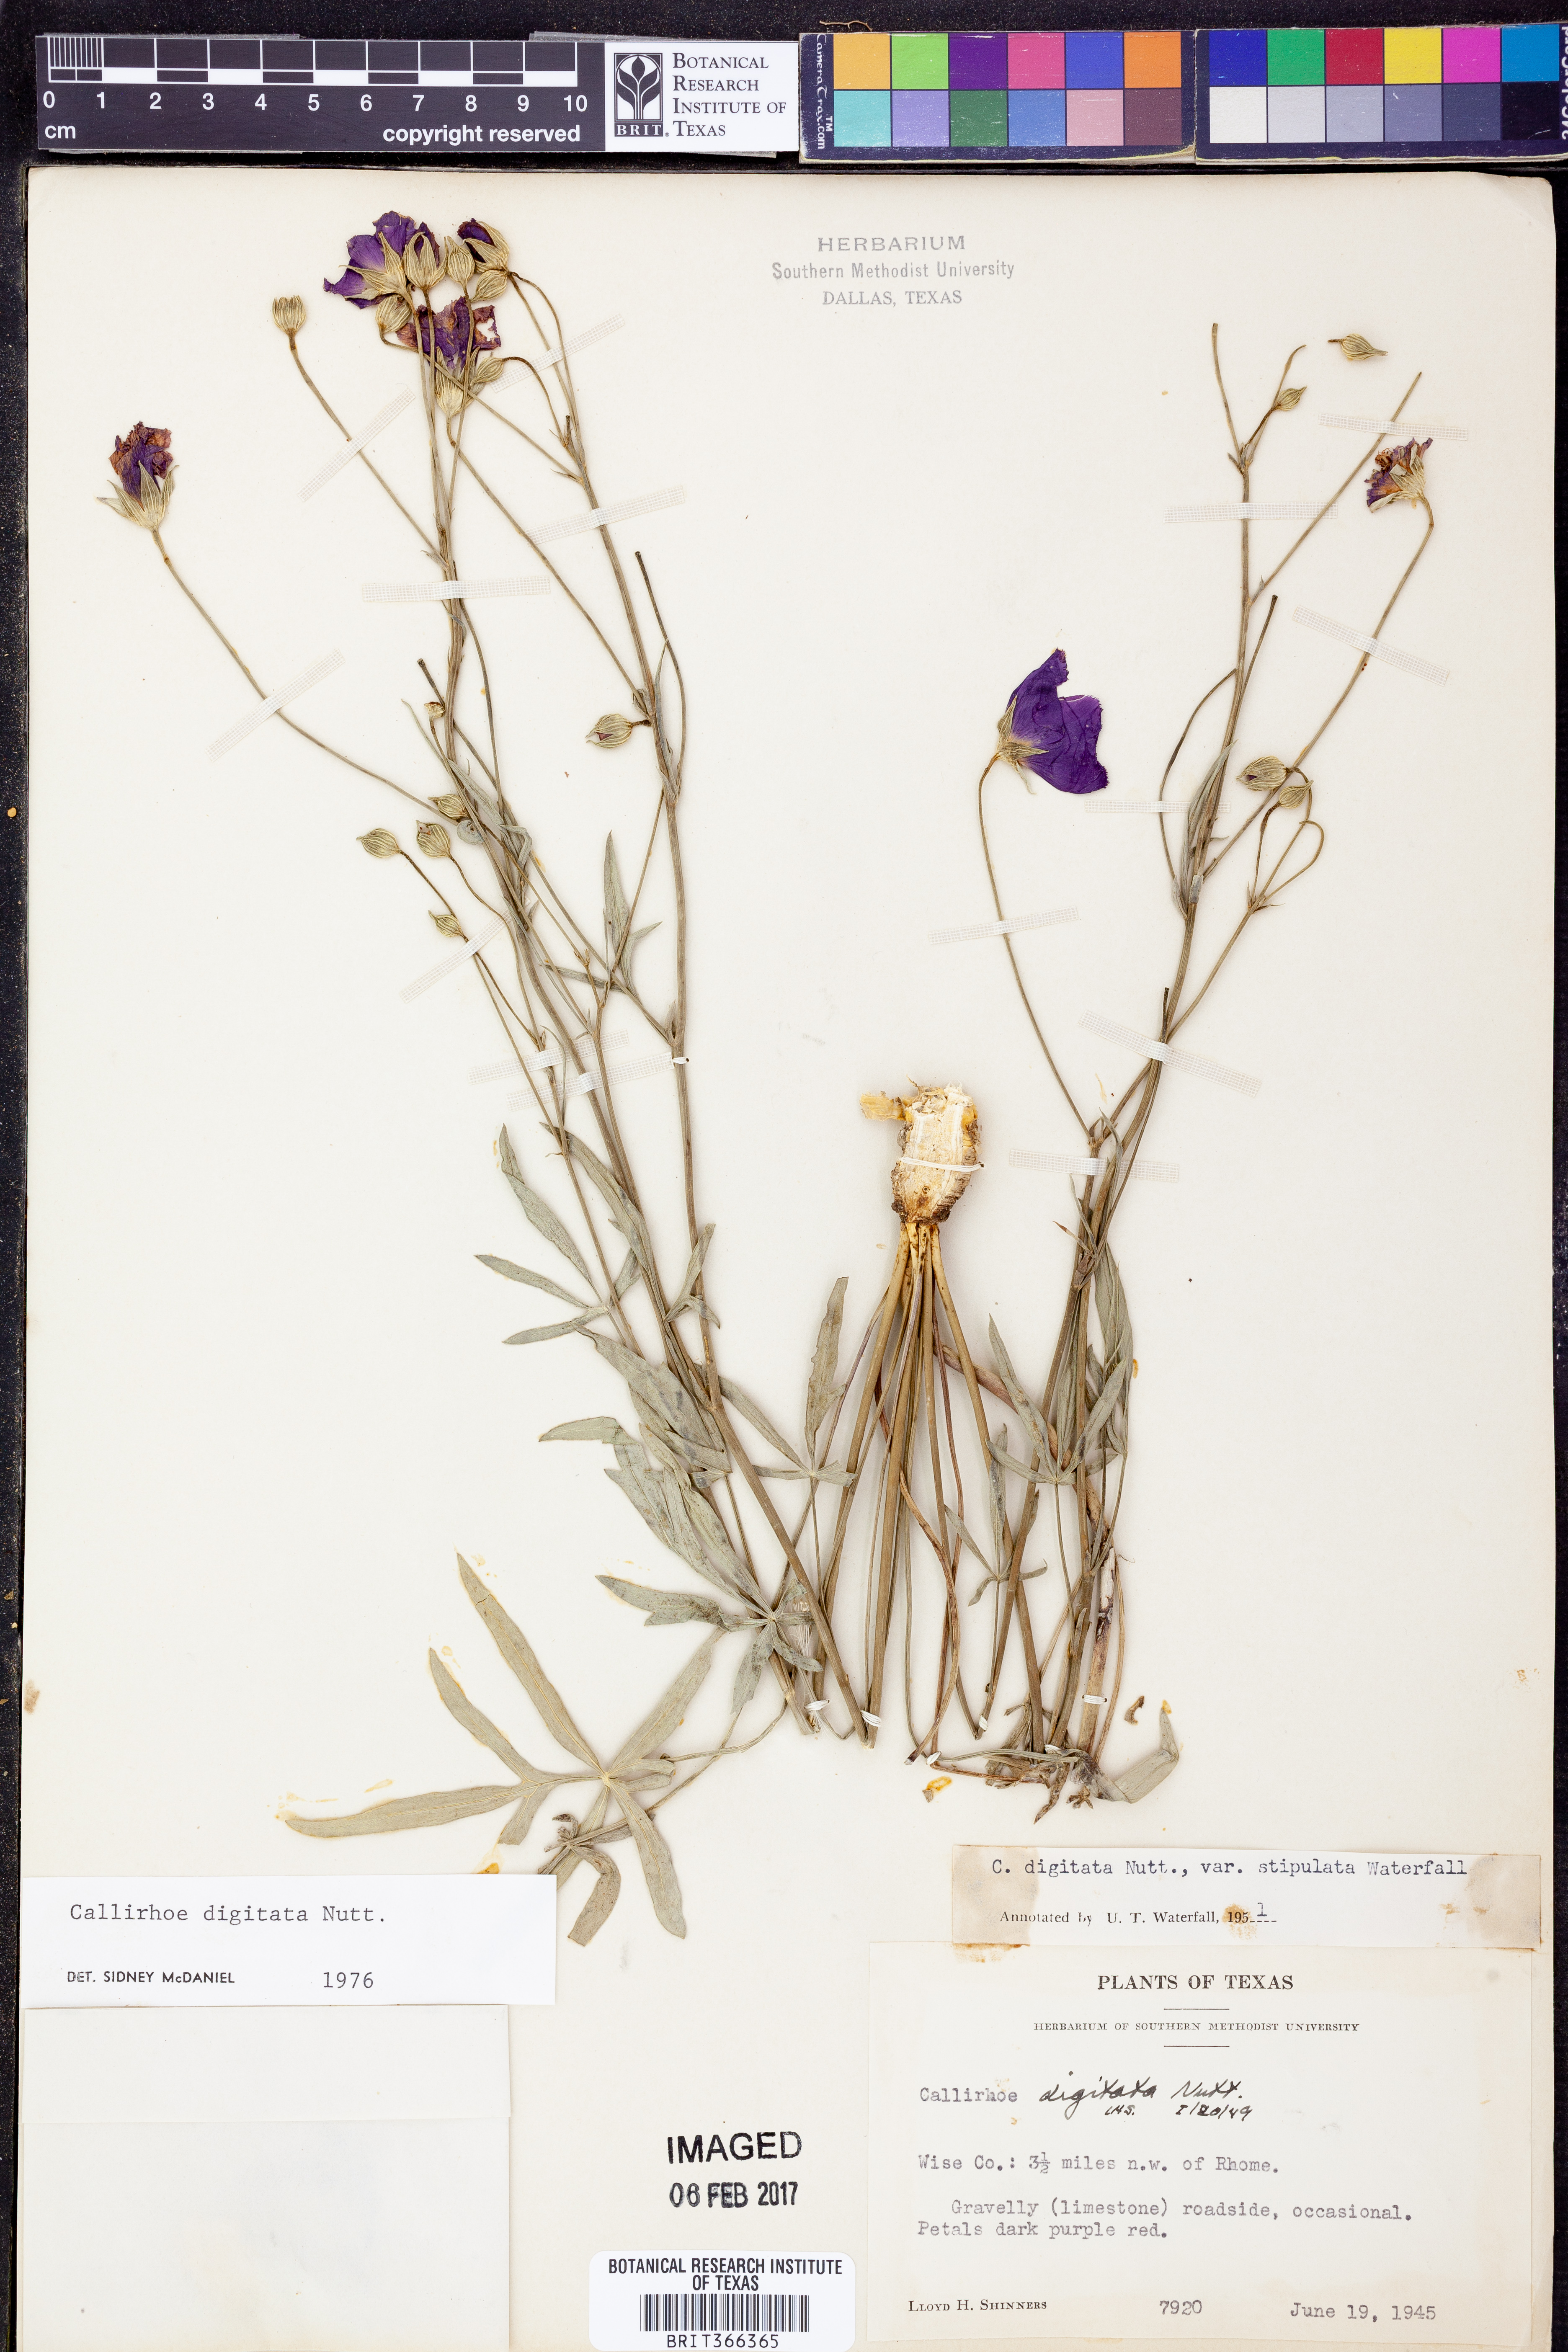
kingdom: Plantae
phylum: Tracheophyta
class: Magnoliopsida
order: Malvales
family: Malvaceae
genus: Callirhoe
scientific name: Callirhoe digitata
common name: Finger poppy-mallow
